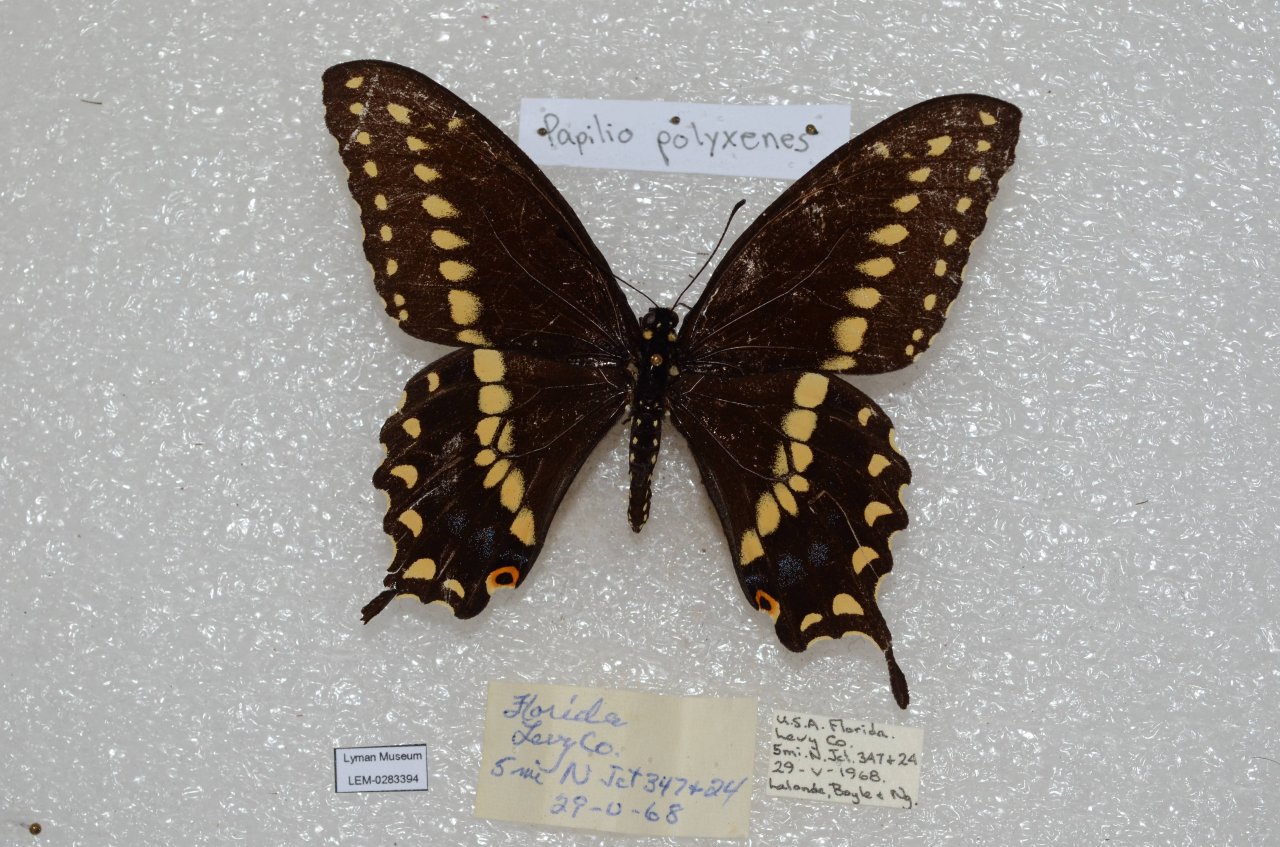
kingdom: Animalia
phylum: Arthropoda
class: Insecta
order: Lepidoptera
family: Papilionidae
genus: Papilio
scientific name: Papilio polyxenes
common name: Black Swallowtail
